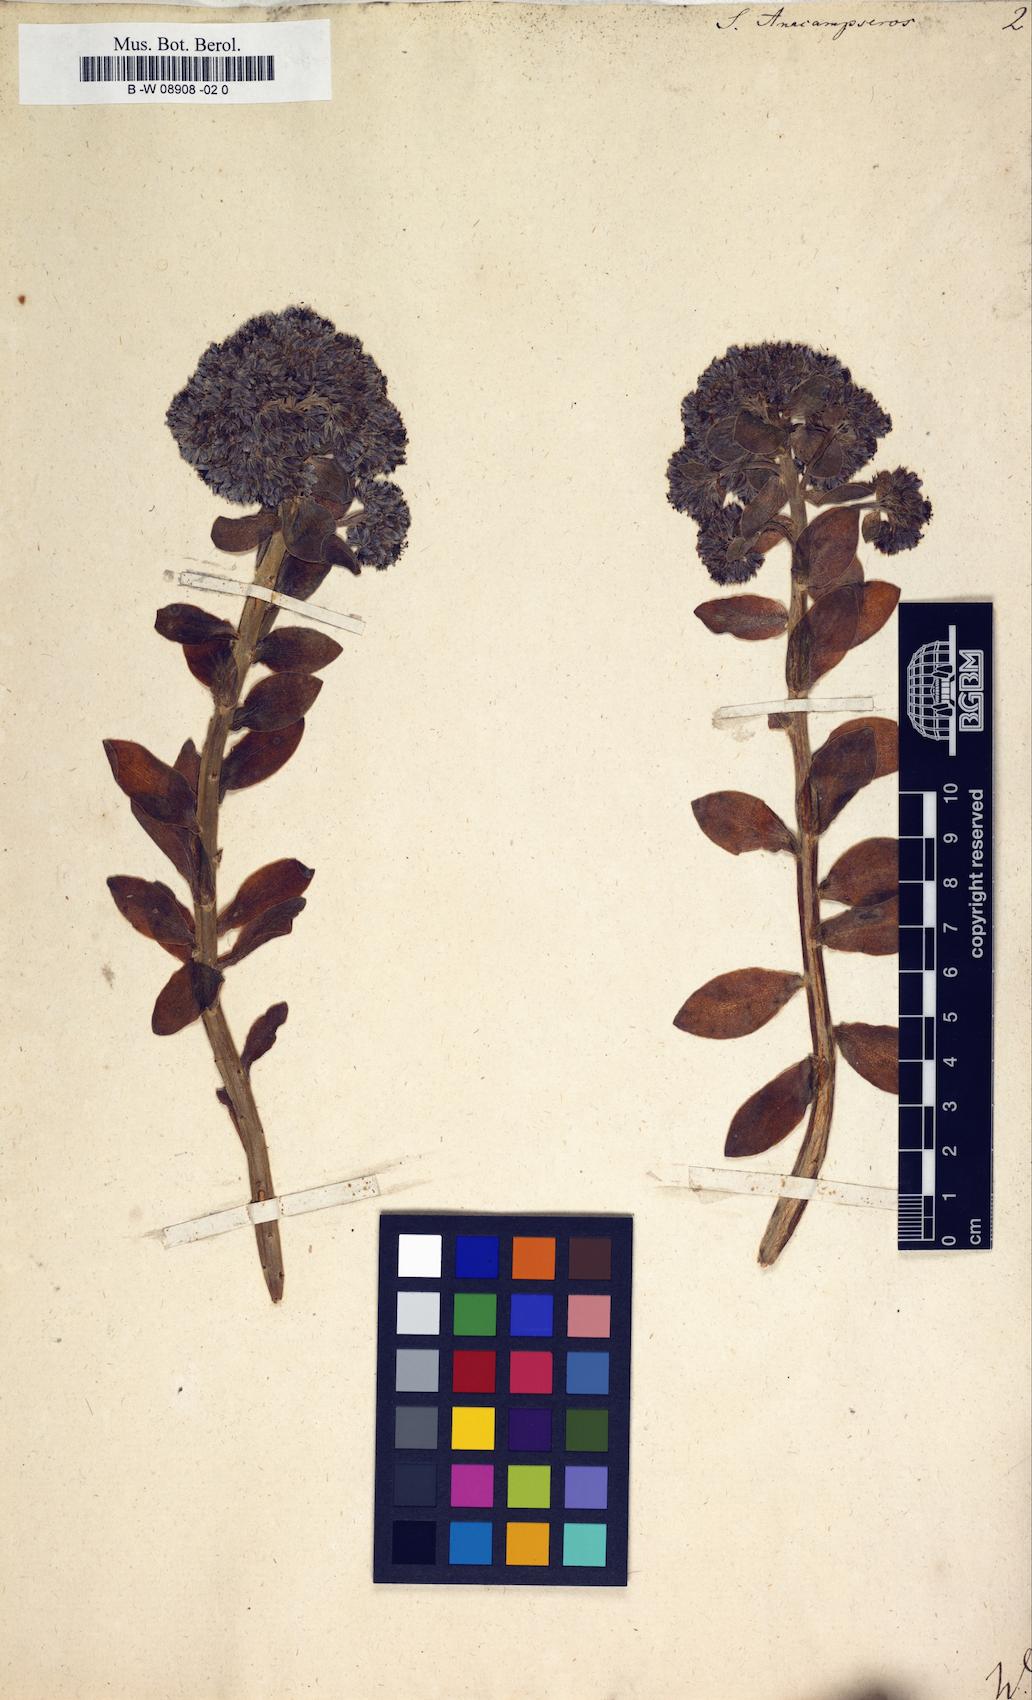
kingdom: Plantae
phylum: Tracheophyta
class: Magnoliopsida
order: Saxifragales
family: Crassulaceae
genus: Hylotelephium
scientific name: Hylotelephium anacampseros
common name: Love-restorer
